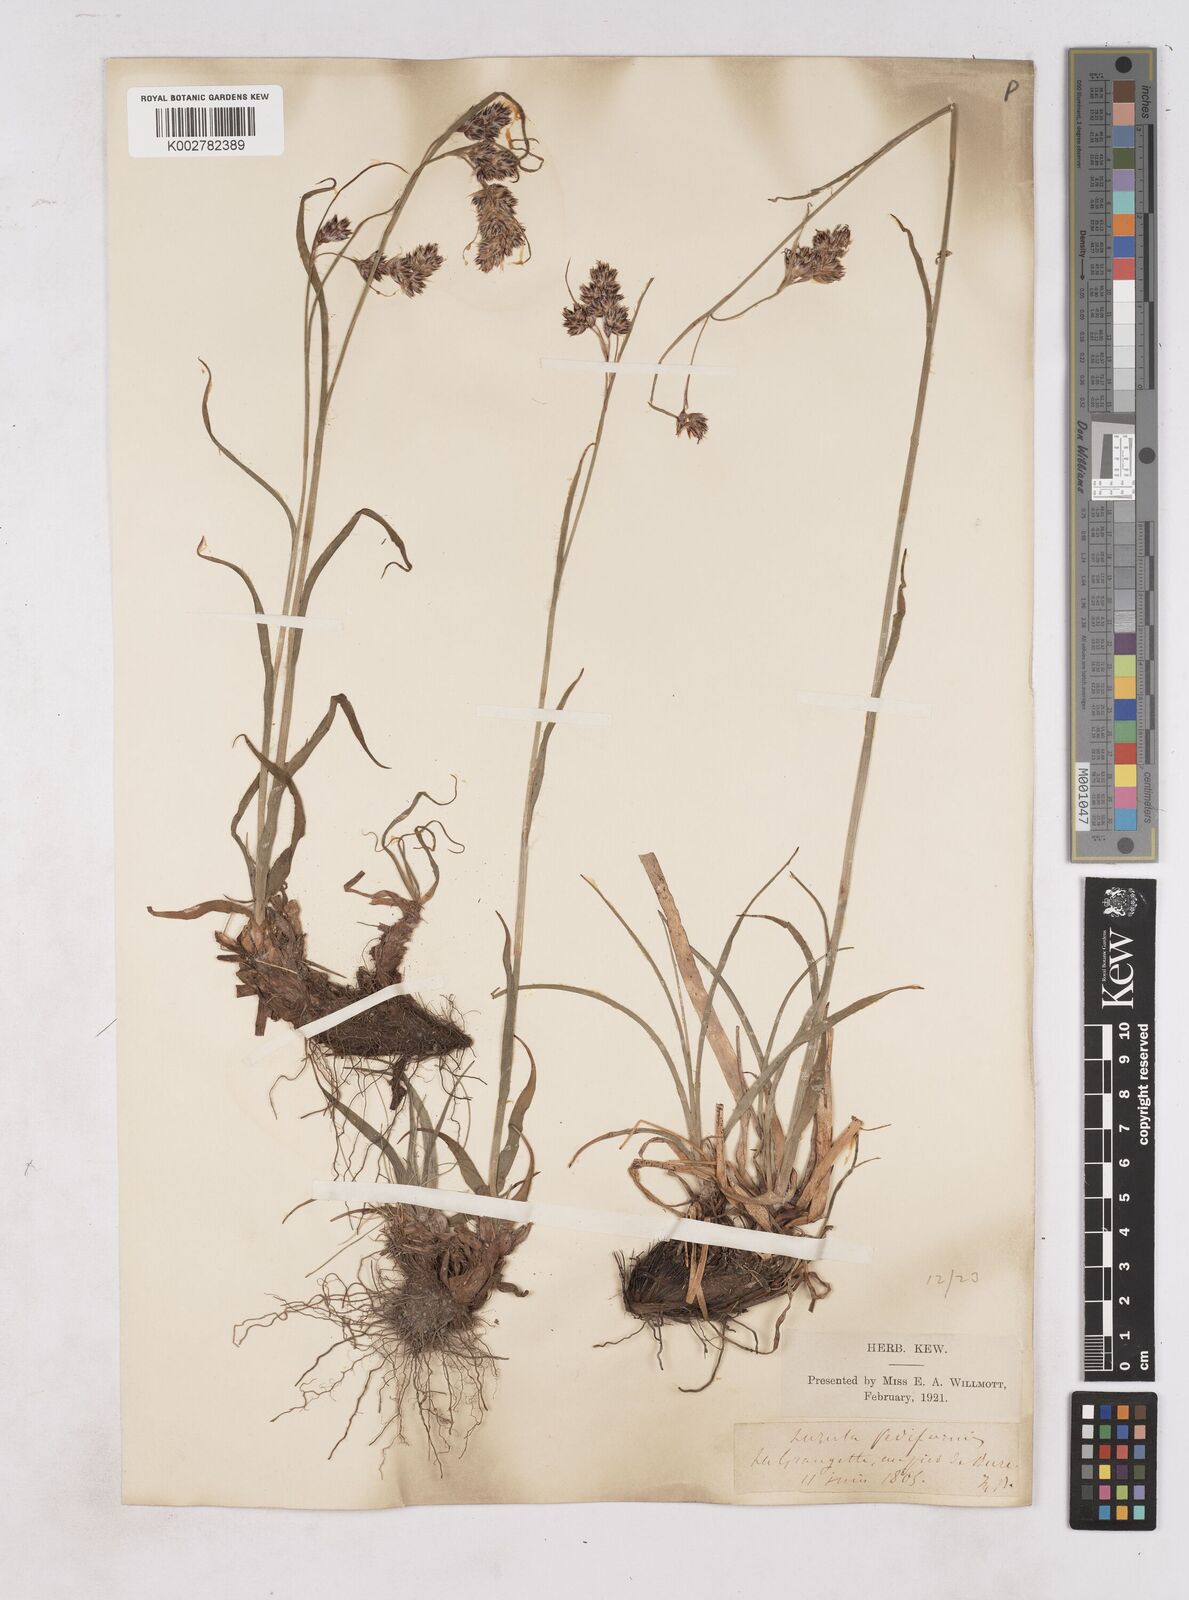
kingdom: Plantae
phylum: Tracheophyta
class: Liliopsida
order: Poales
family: Juncaceae
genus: Luzula
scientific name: Luzula pediformis
